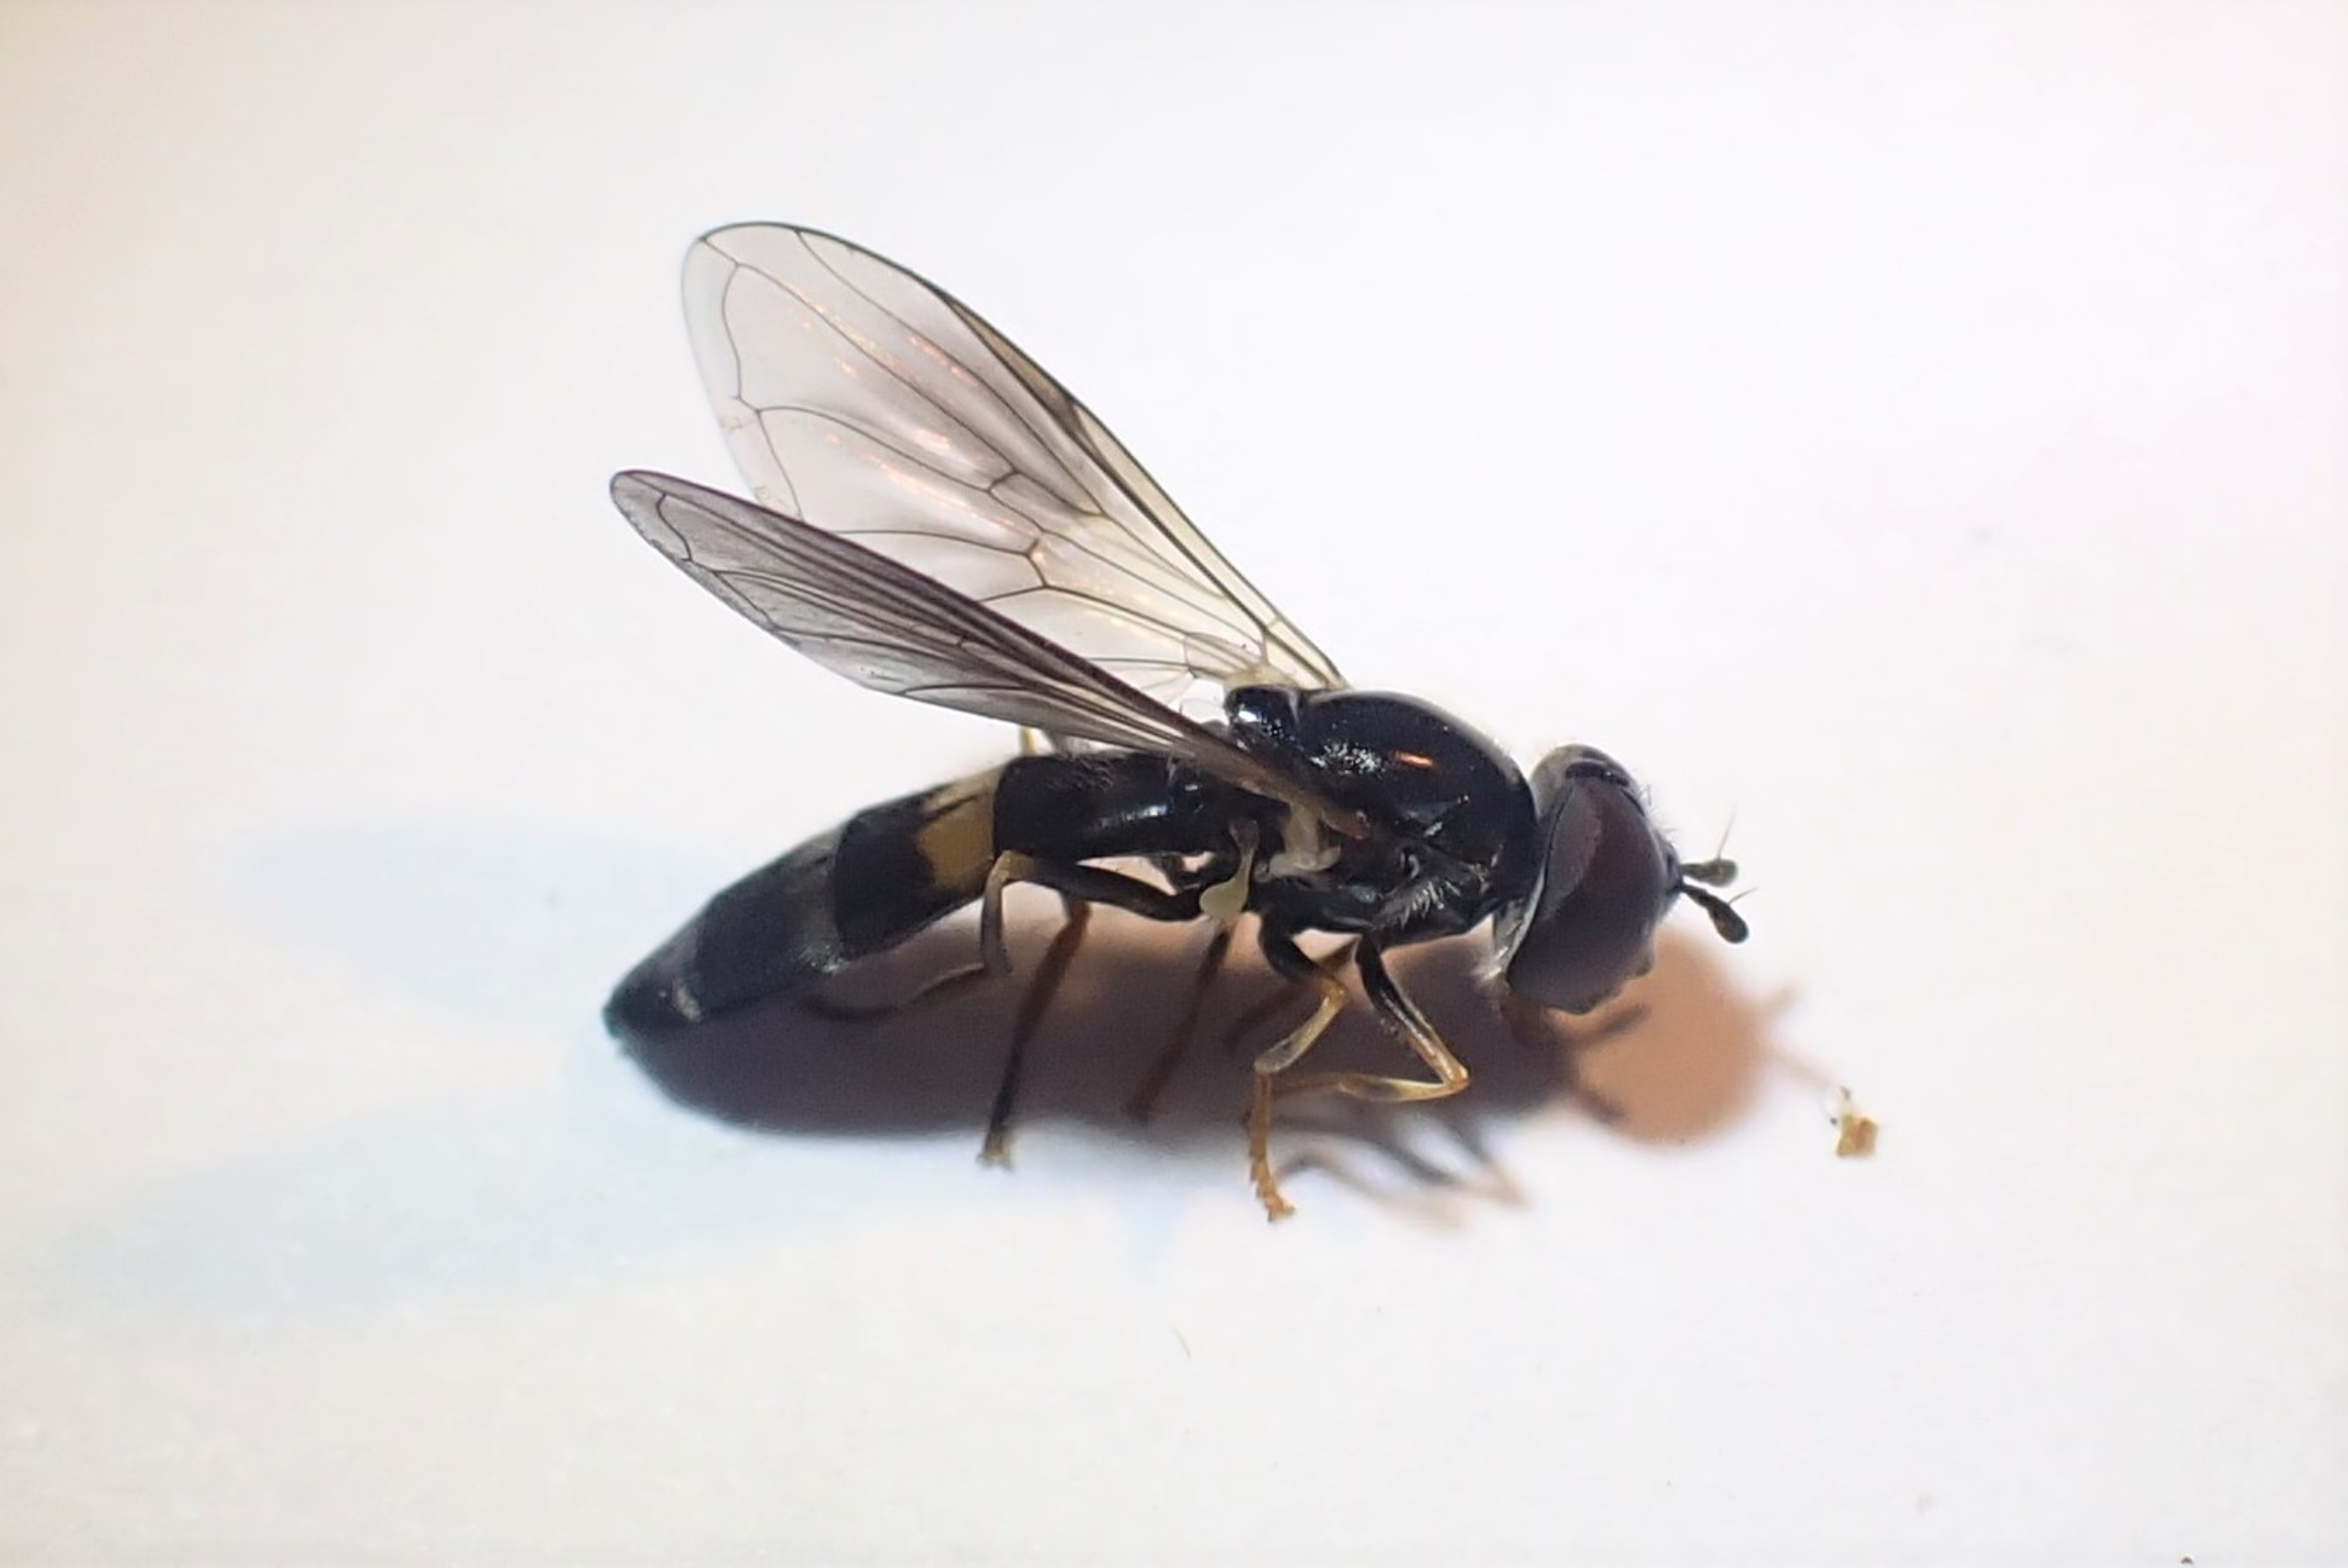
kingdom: Animalia
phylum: Arthropoda
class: Insecta
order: Diptera
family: Syrphidae
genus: Pyrophaena
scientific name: Pyrophaena rosarum
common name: Toplettet ildsvirreflue
